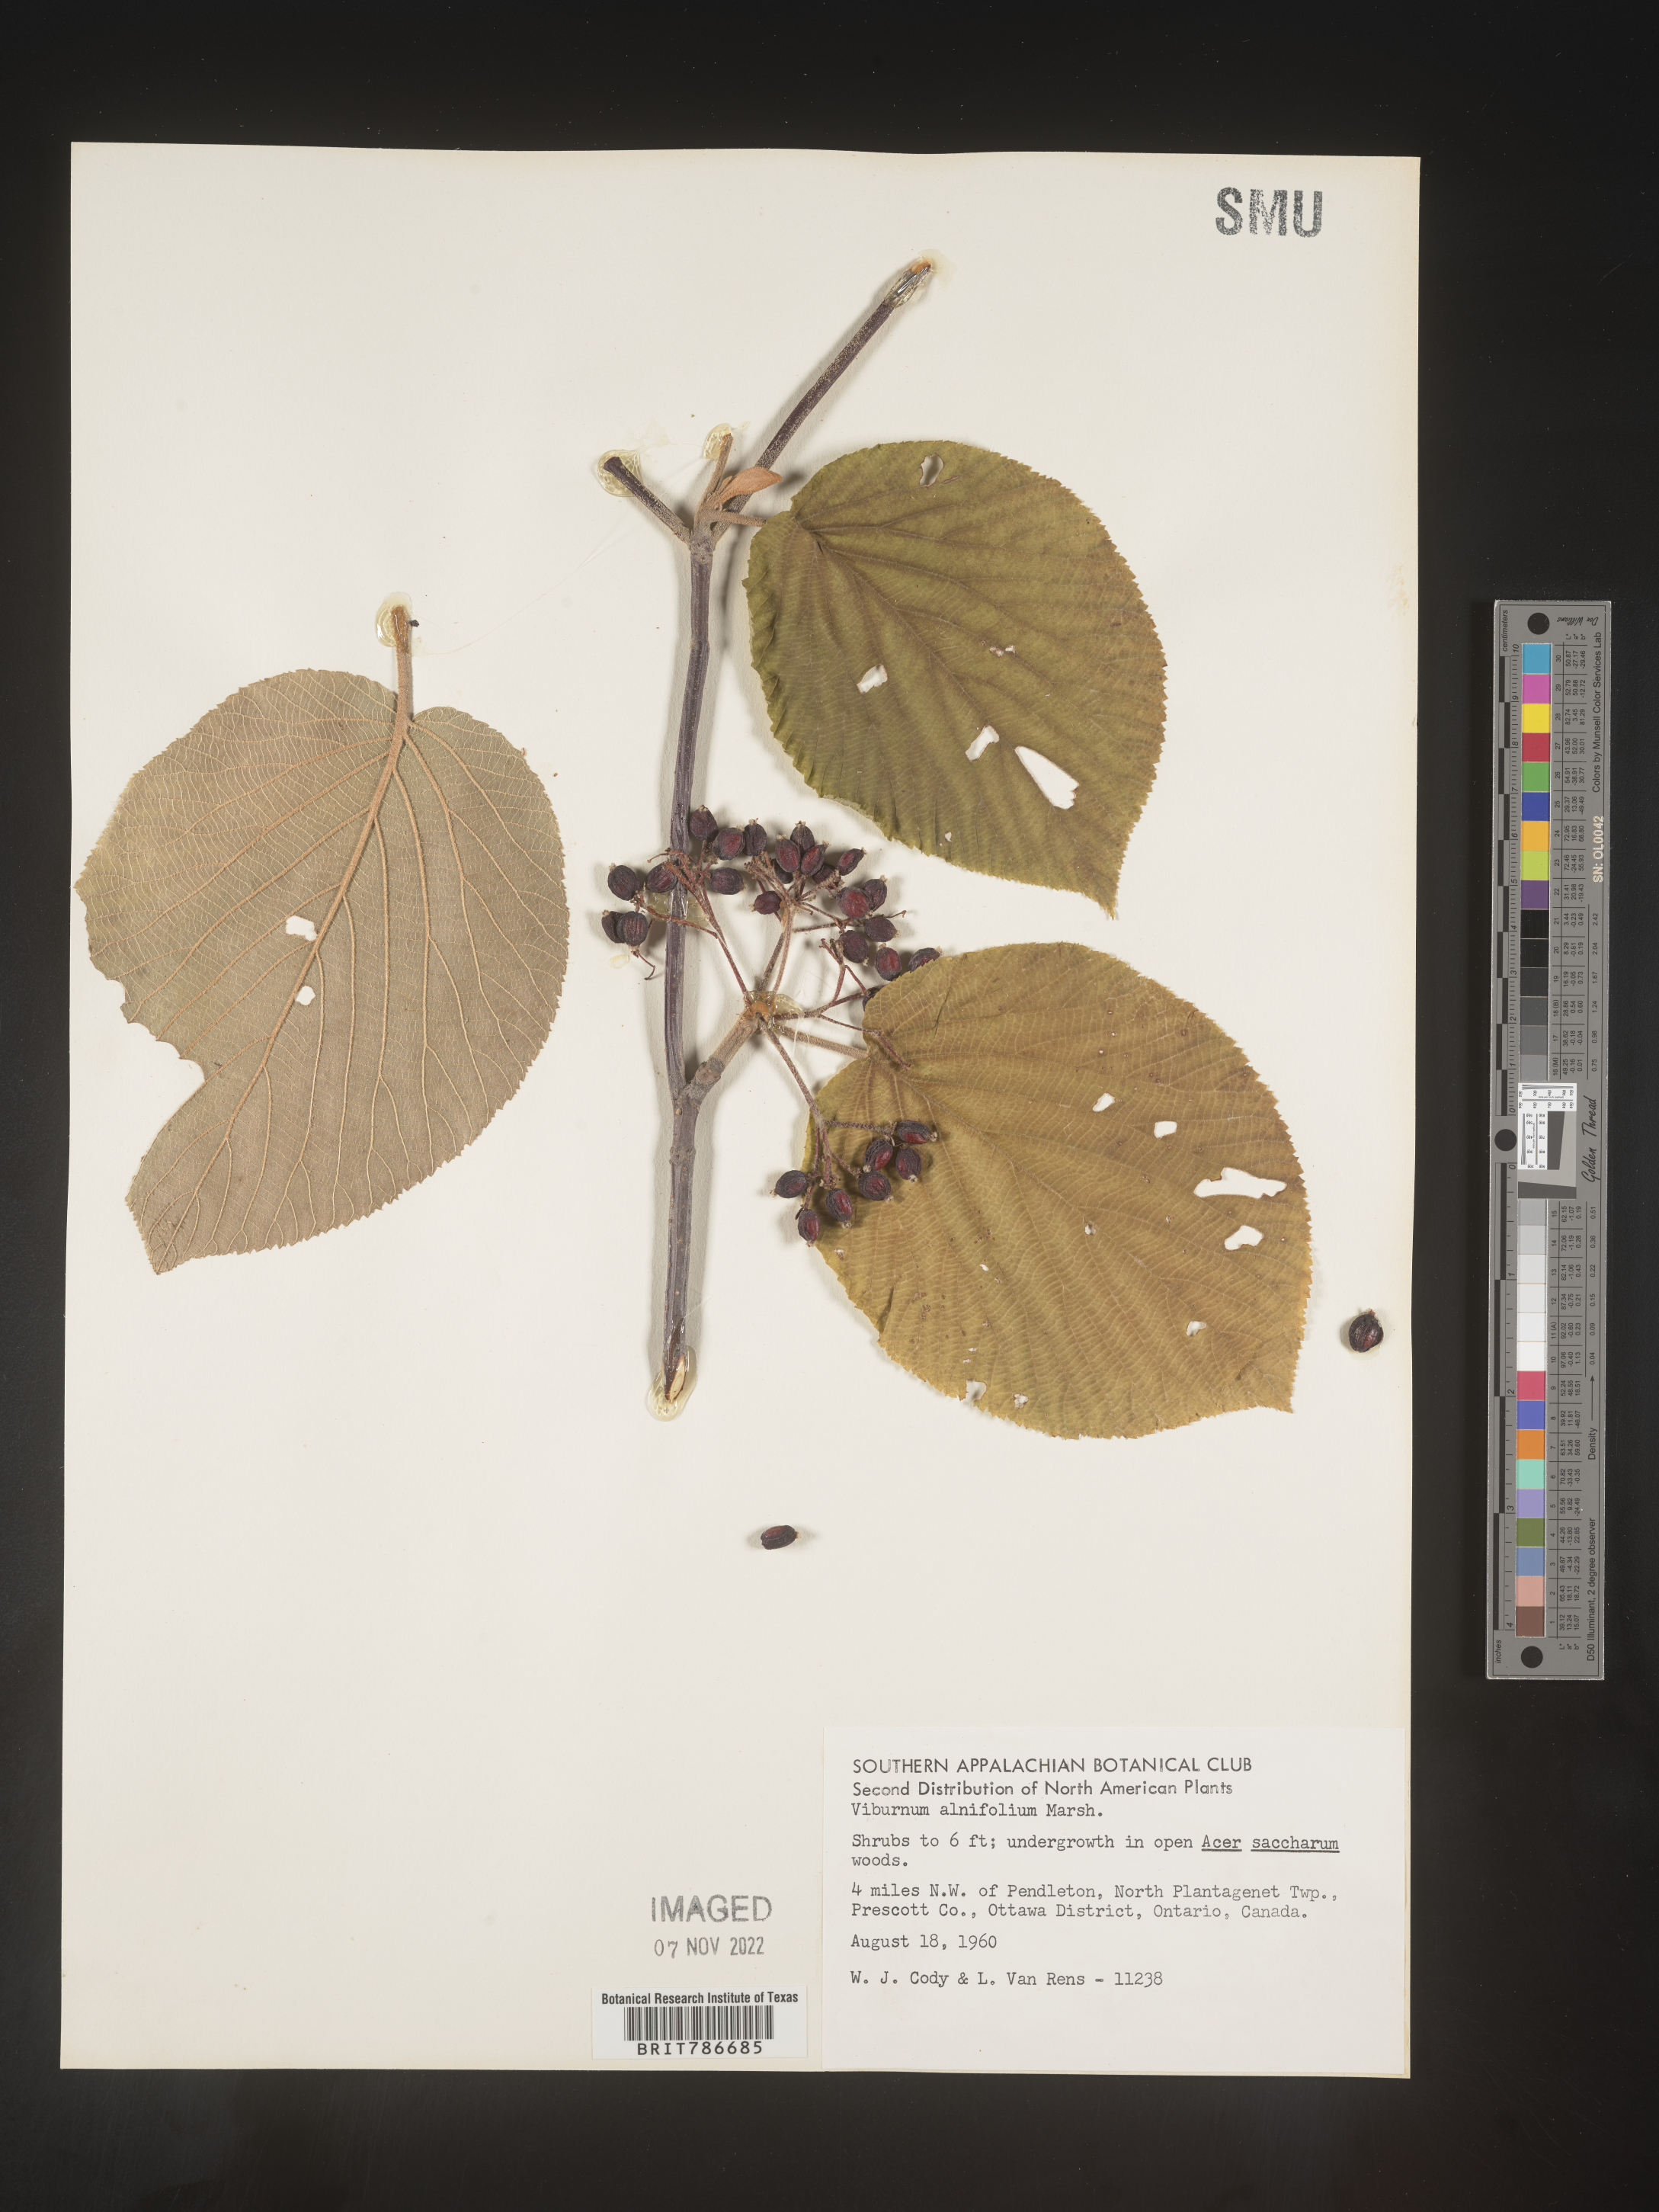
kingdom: Plantae
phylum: Tracheophyta
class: Magnoliopsida
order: Dipsacales
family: Viburnaceae
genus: Viburnum
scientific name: Viburnum lantanoides
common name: Hobblebush
